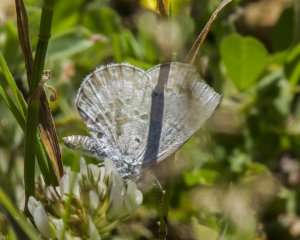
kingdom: Animalia
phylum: Arthropoda
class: Insecta
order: Lepidoptera
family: Lycaenidae
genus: Cyaniris
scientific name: Cyaniris neglecta
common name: Summer Azure
